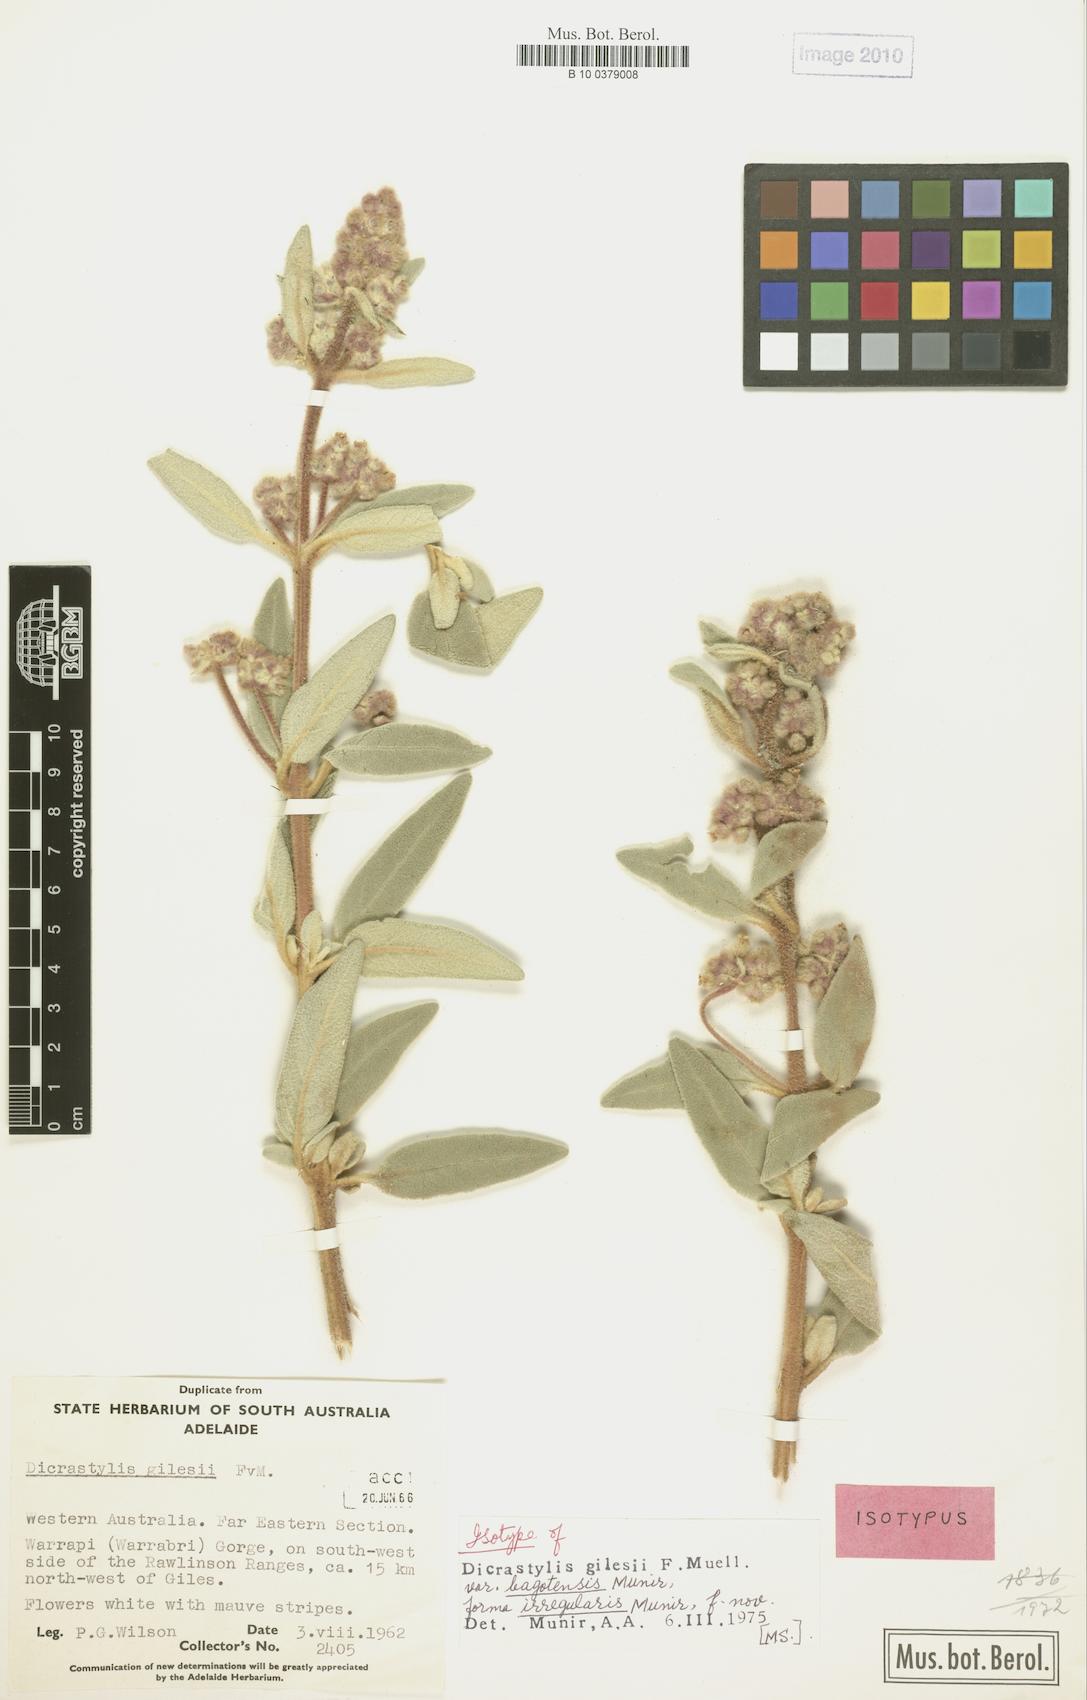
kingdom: Plantae
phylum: Tracheophyta
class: Magnoliopsida
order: Lamiales
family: Lamiaceae
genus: Dicrastylis
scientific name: Dicrastylis gilesii
